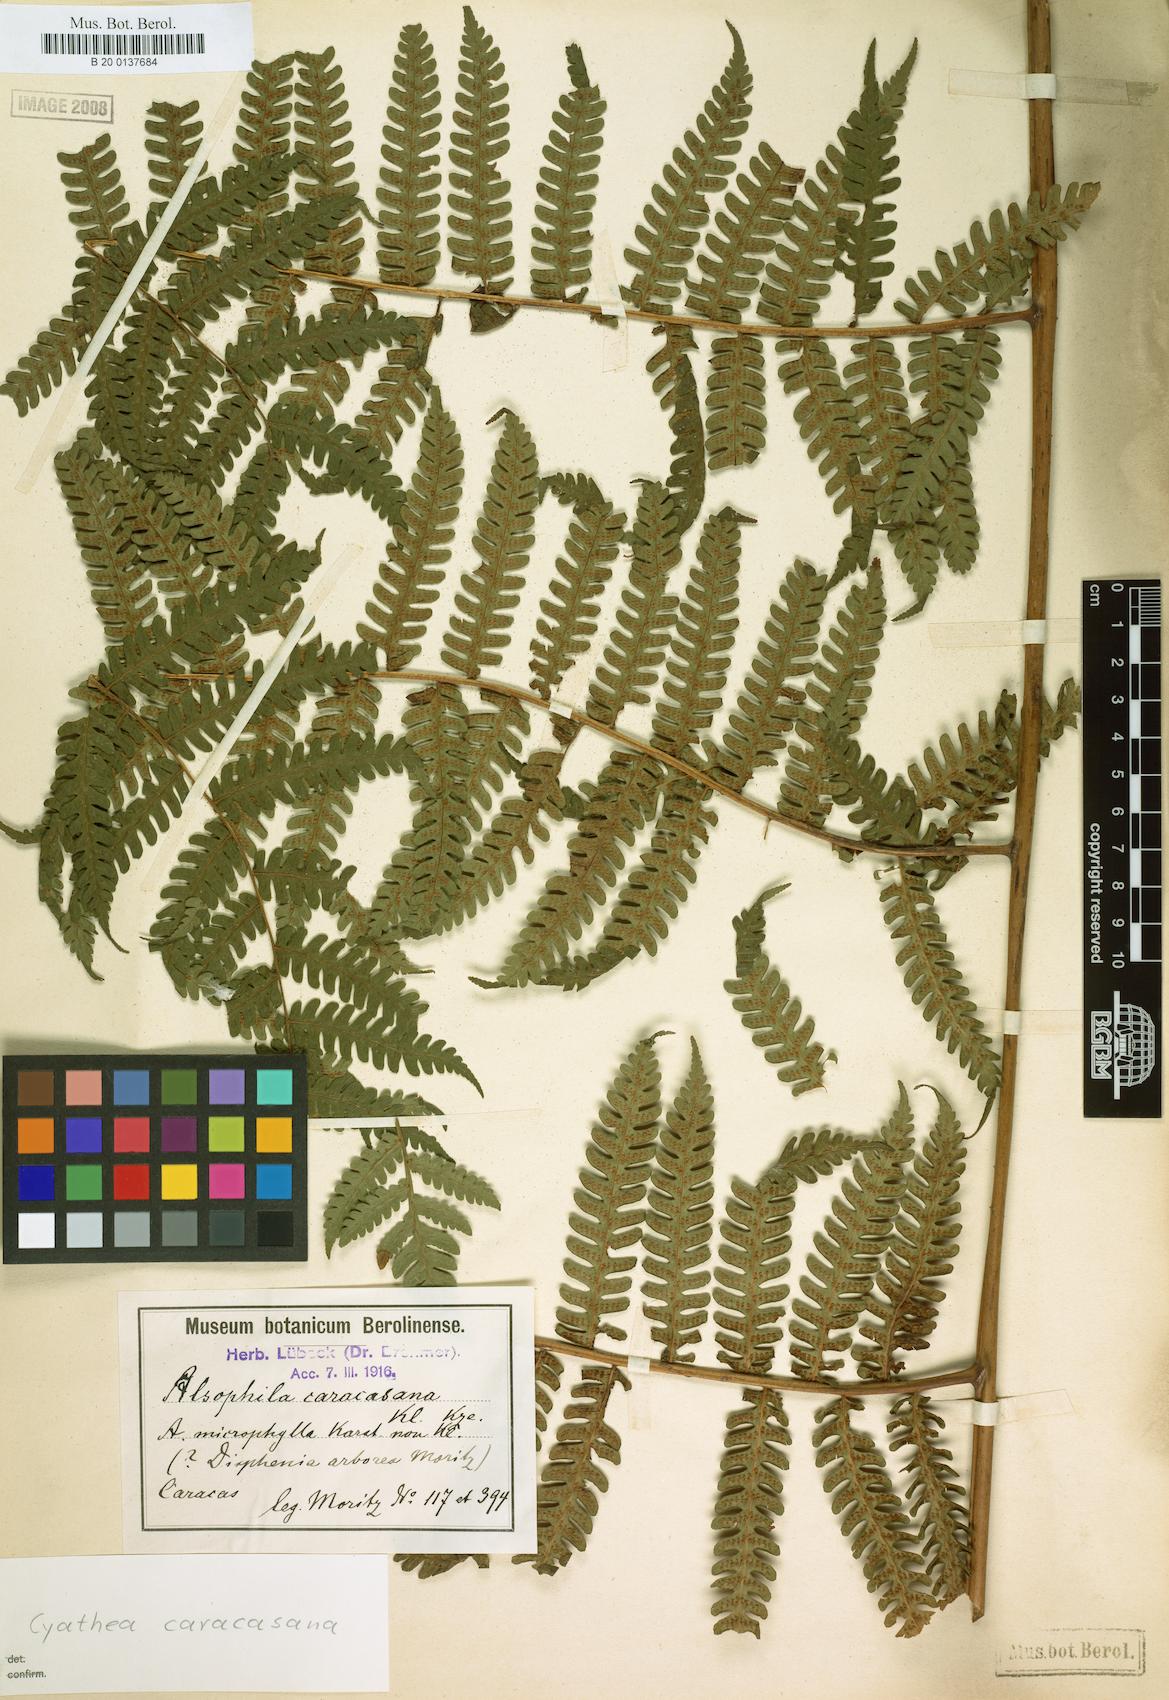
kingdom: Plantae
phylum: Tracheophyta
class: Polypodiopsida
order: Cyatheales
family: Cyatheaceae
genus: Cyathea
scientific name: Cyathea caracasana
